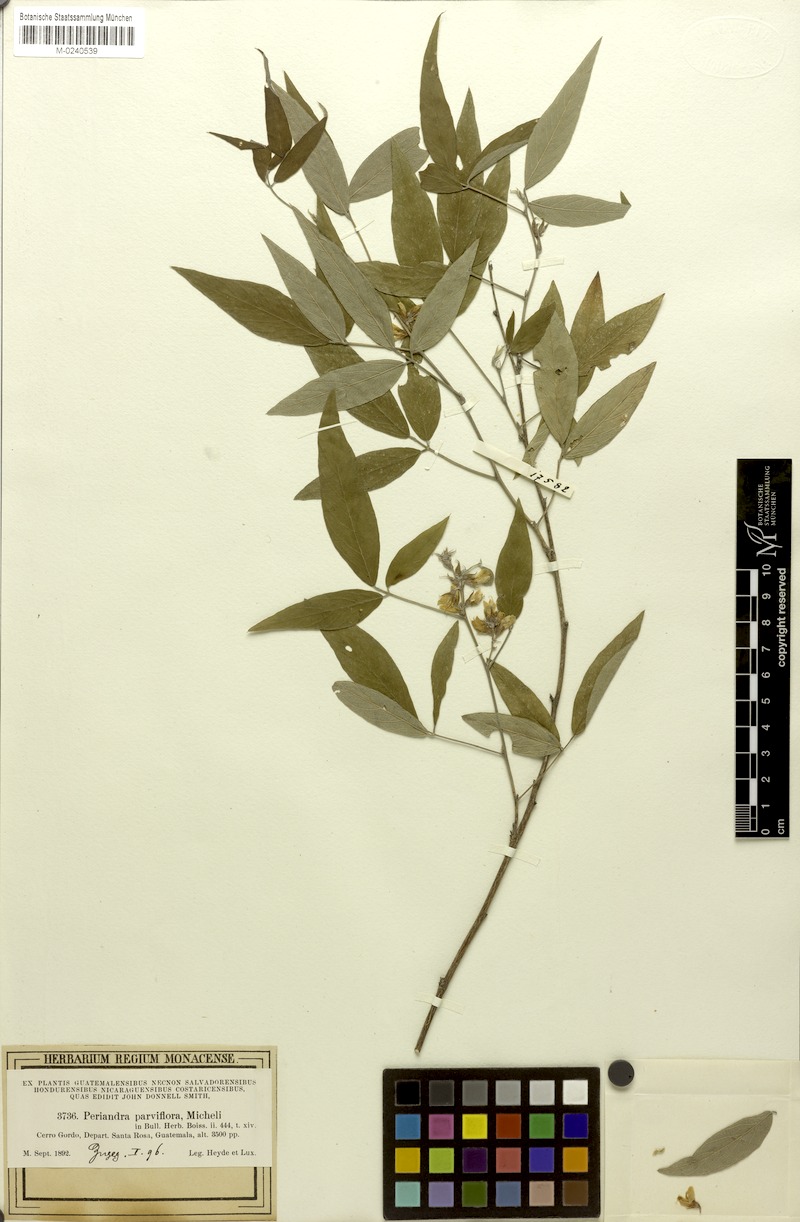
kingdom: Plantae
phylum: Tracheophyta
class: Magnoliopsida
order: Fabales
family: Fabaceae
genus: Galactia
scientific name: Galactia jussiaeana
